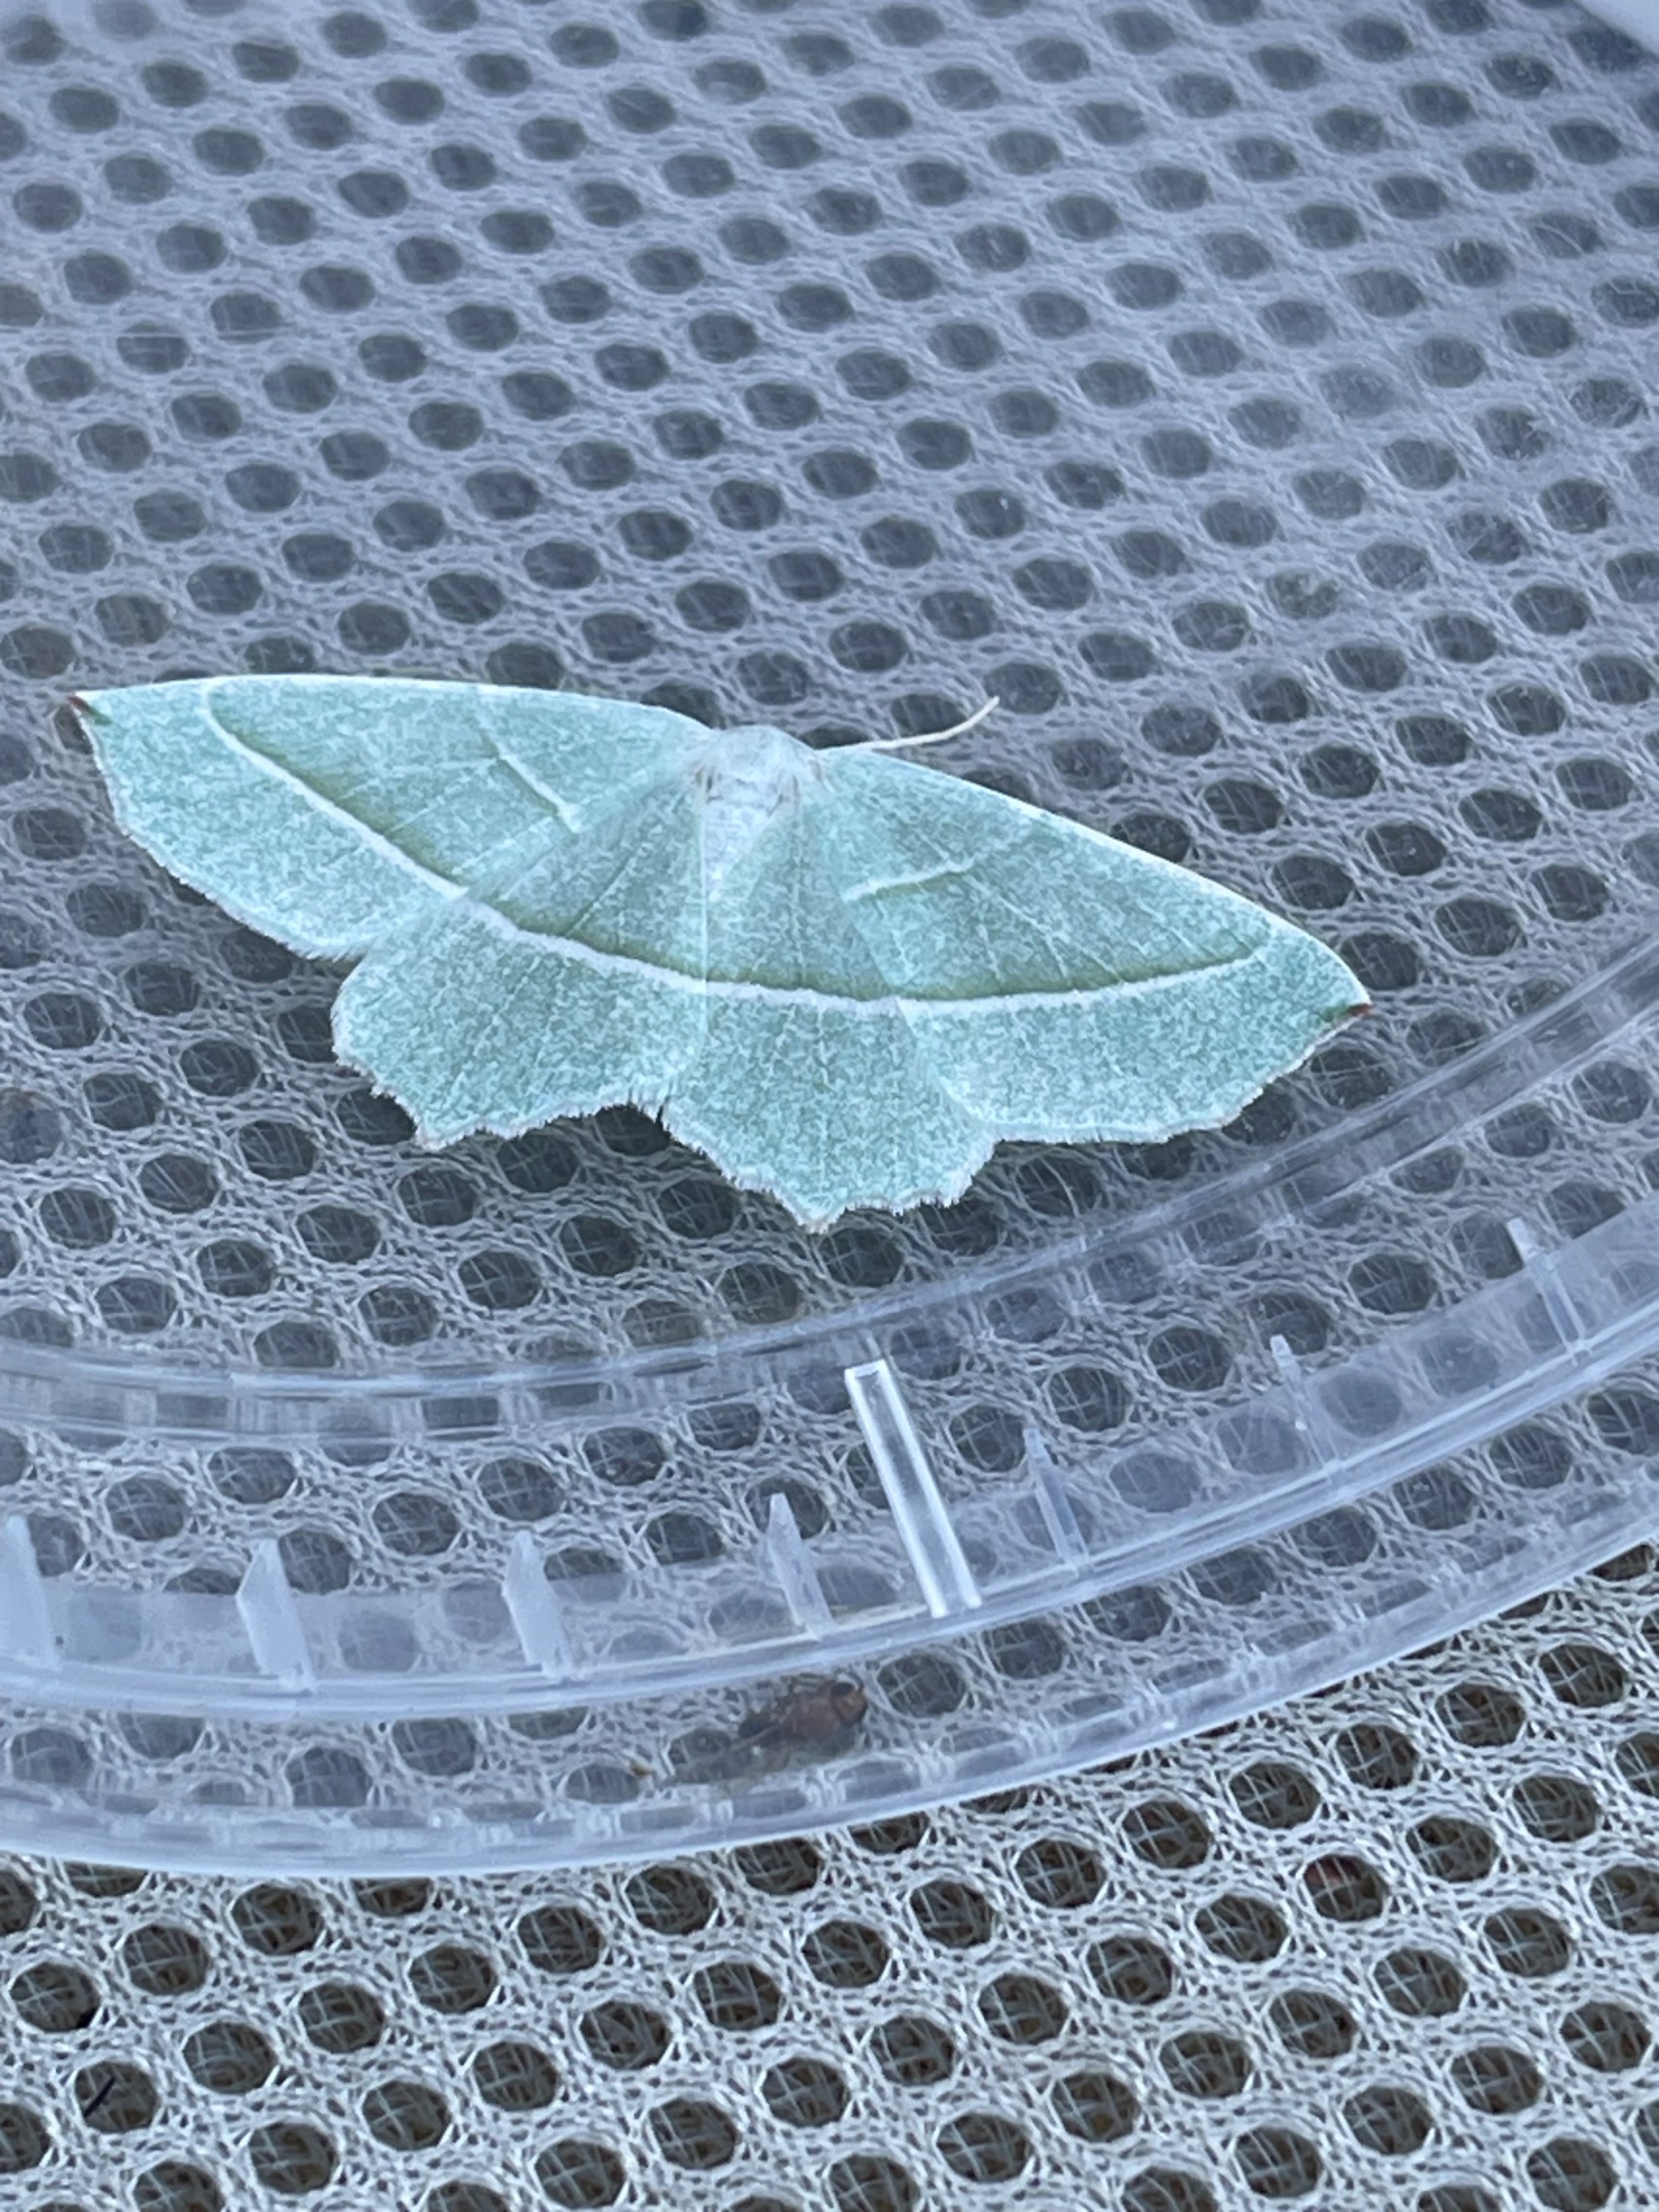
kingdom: Animalia
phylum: Arthropoda
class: Insecta
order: Lepidoptera
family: Geometridae
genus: Campaea
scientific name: Campaea margaritaria
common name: Perlemåler
